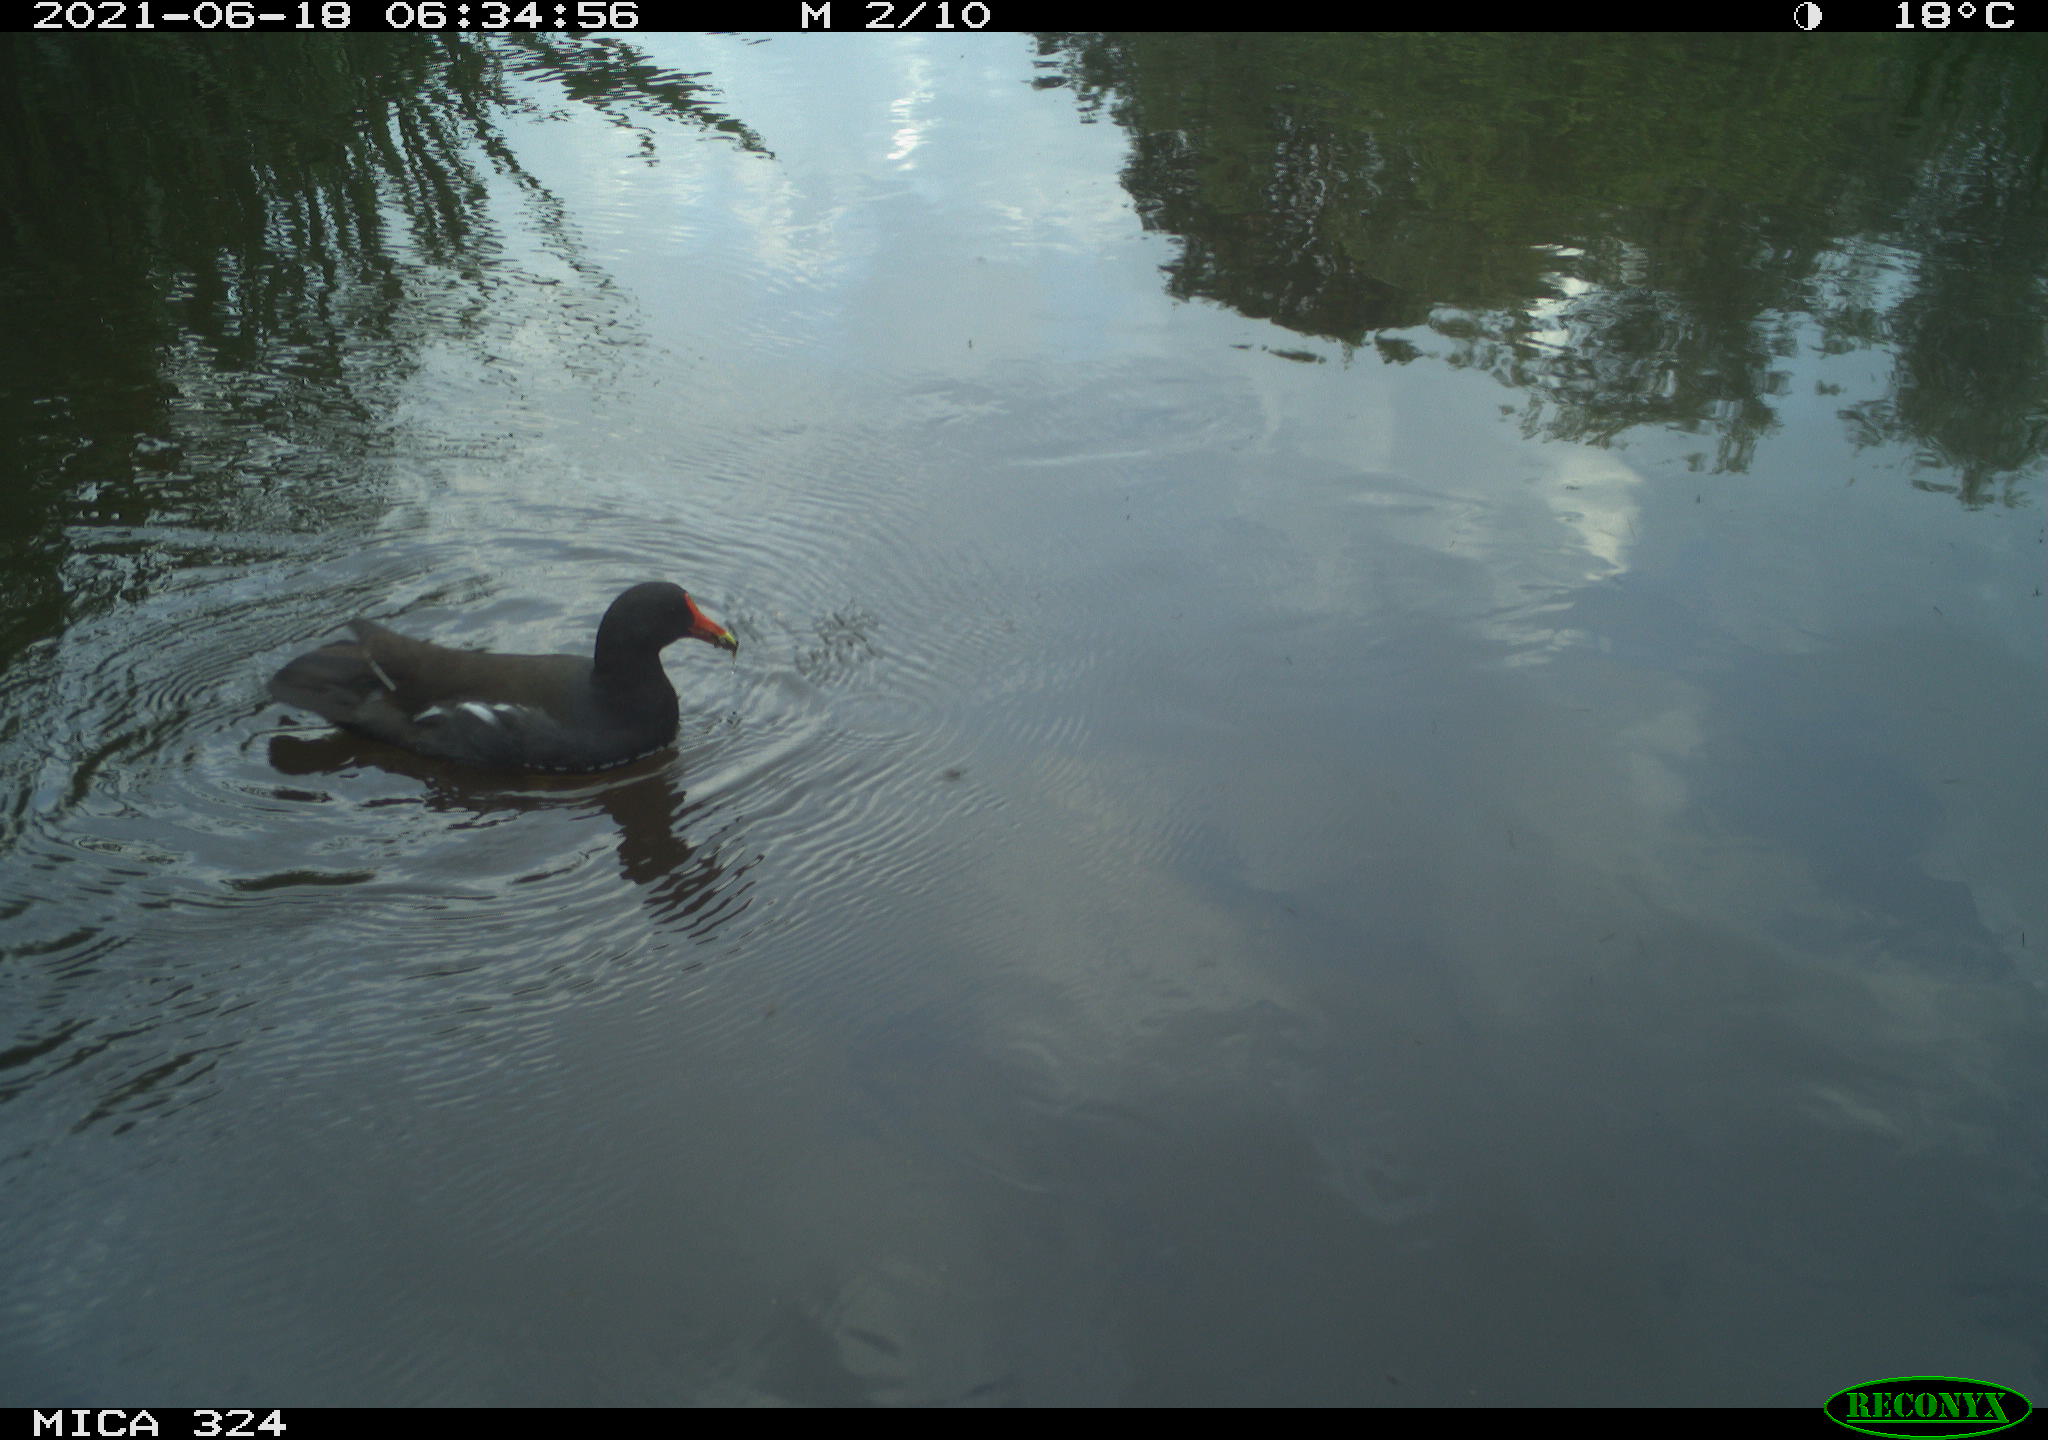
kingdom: Animalia
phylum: Chordata
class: Aves
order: Gruiformes
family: Rallidae
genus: Gallinula
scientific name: Gallinula chloropus
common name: Common moorhen
